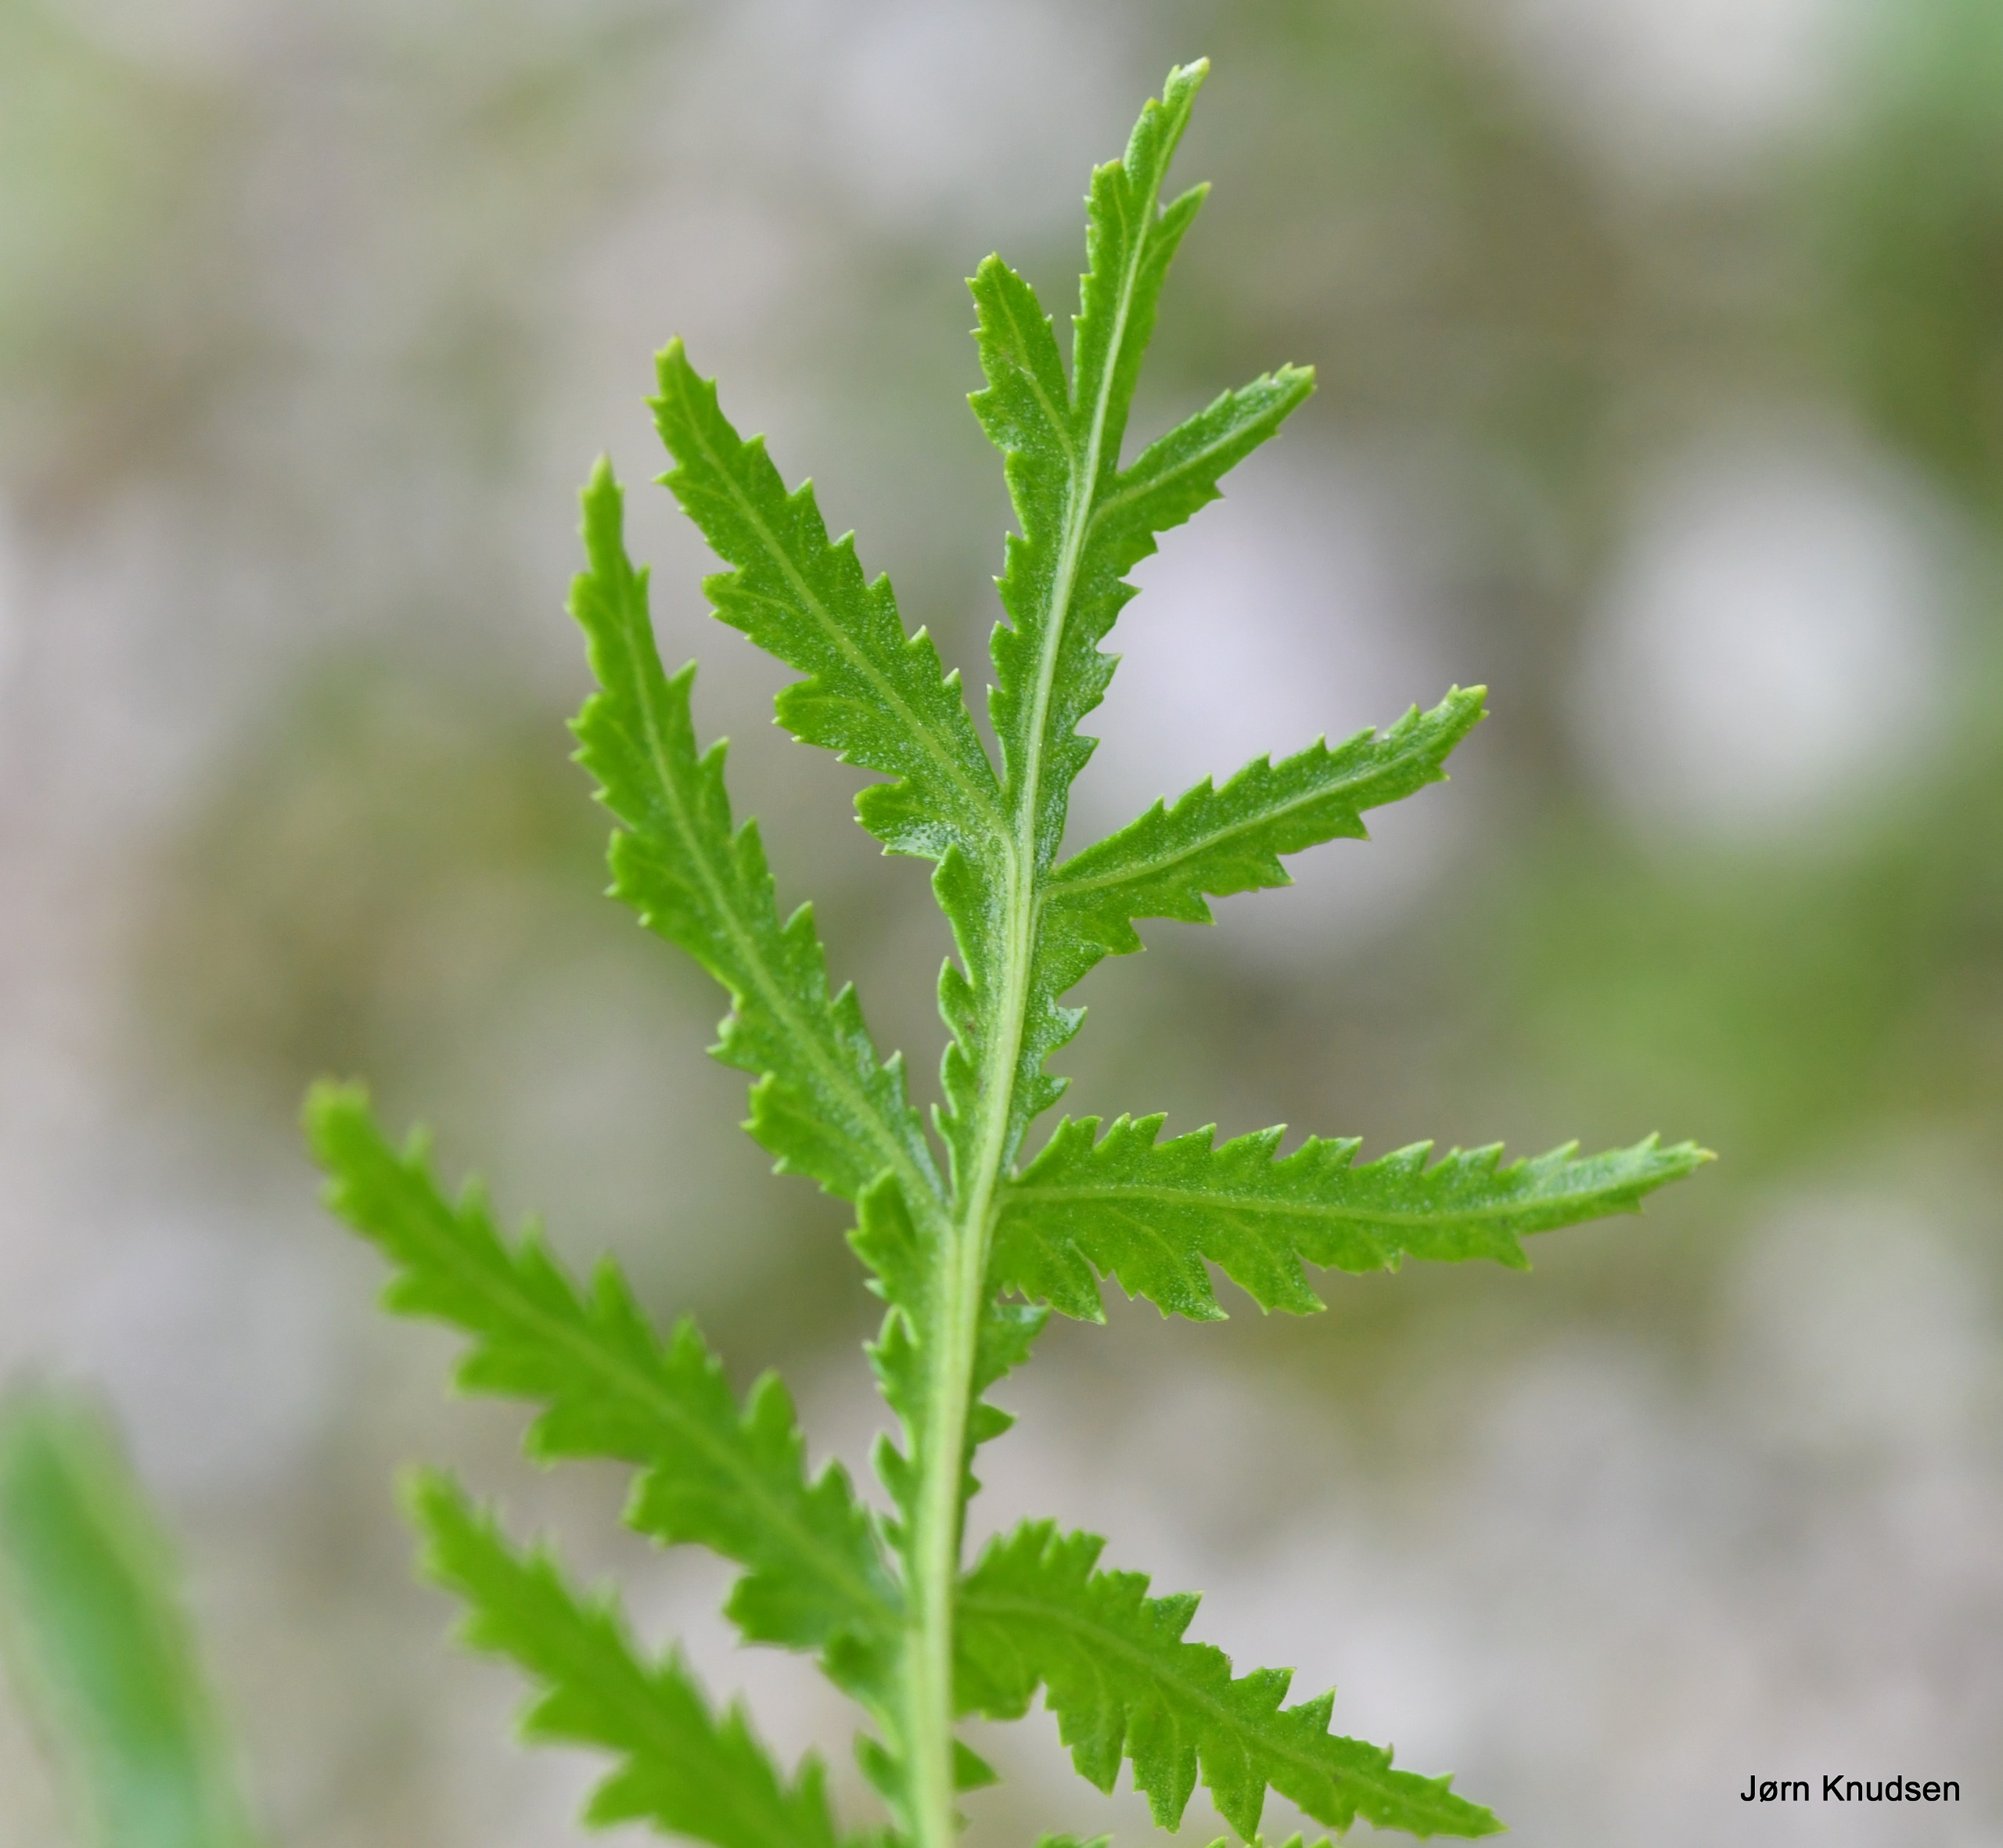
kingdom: Plantae
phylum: Tracheophyta
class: Magnoliopsida
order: Asterales
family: Asteraceae
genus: Tanacetum
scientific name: Tanacetum vulgare
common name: Rejnfan
